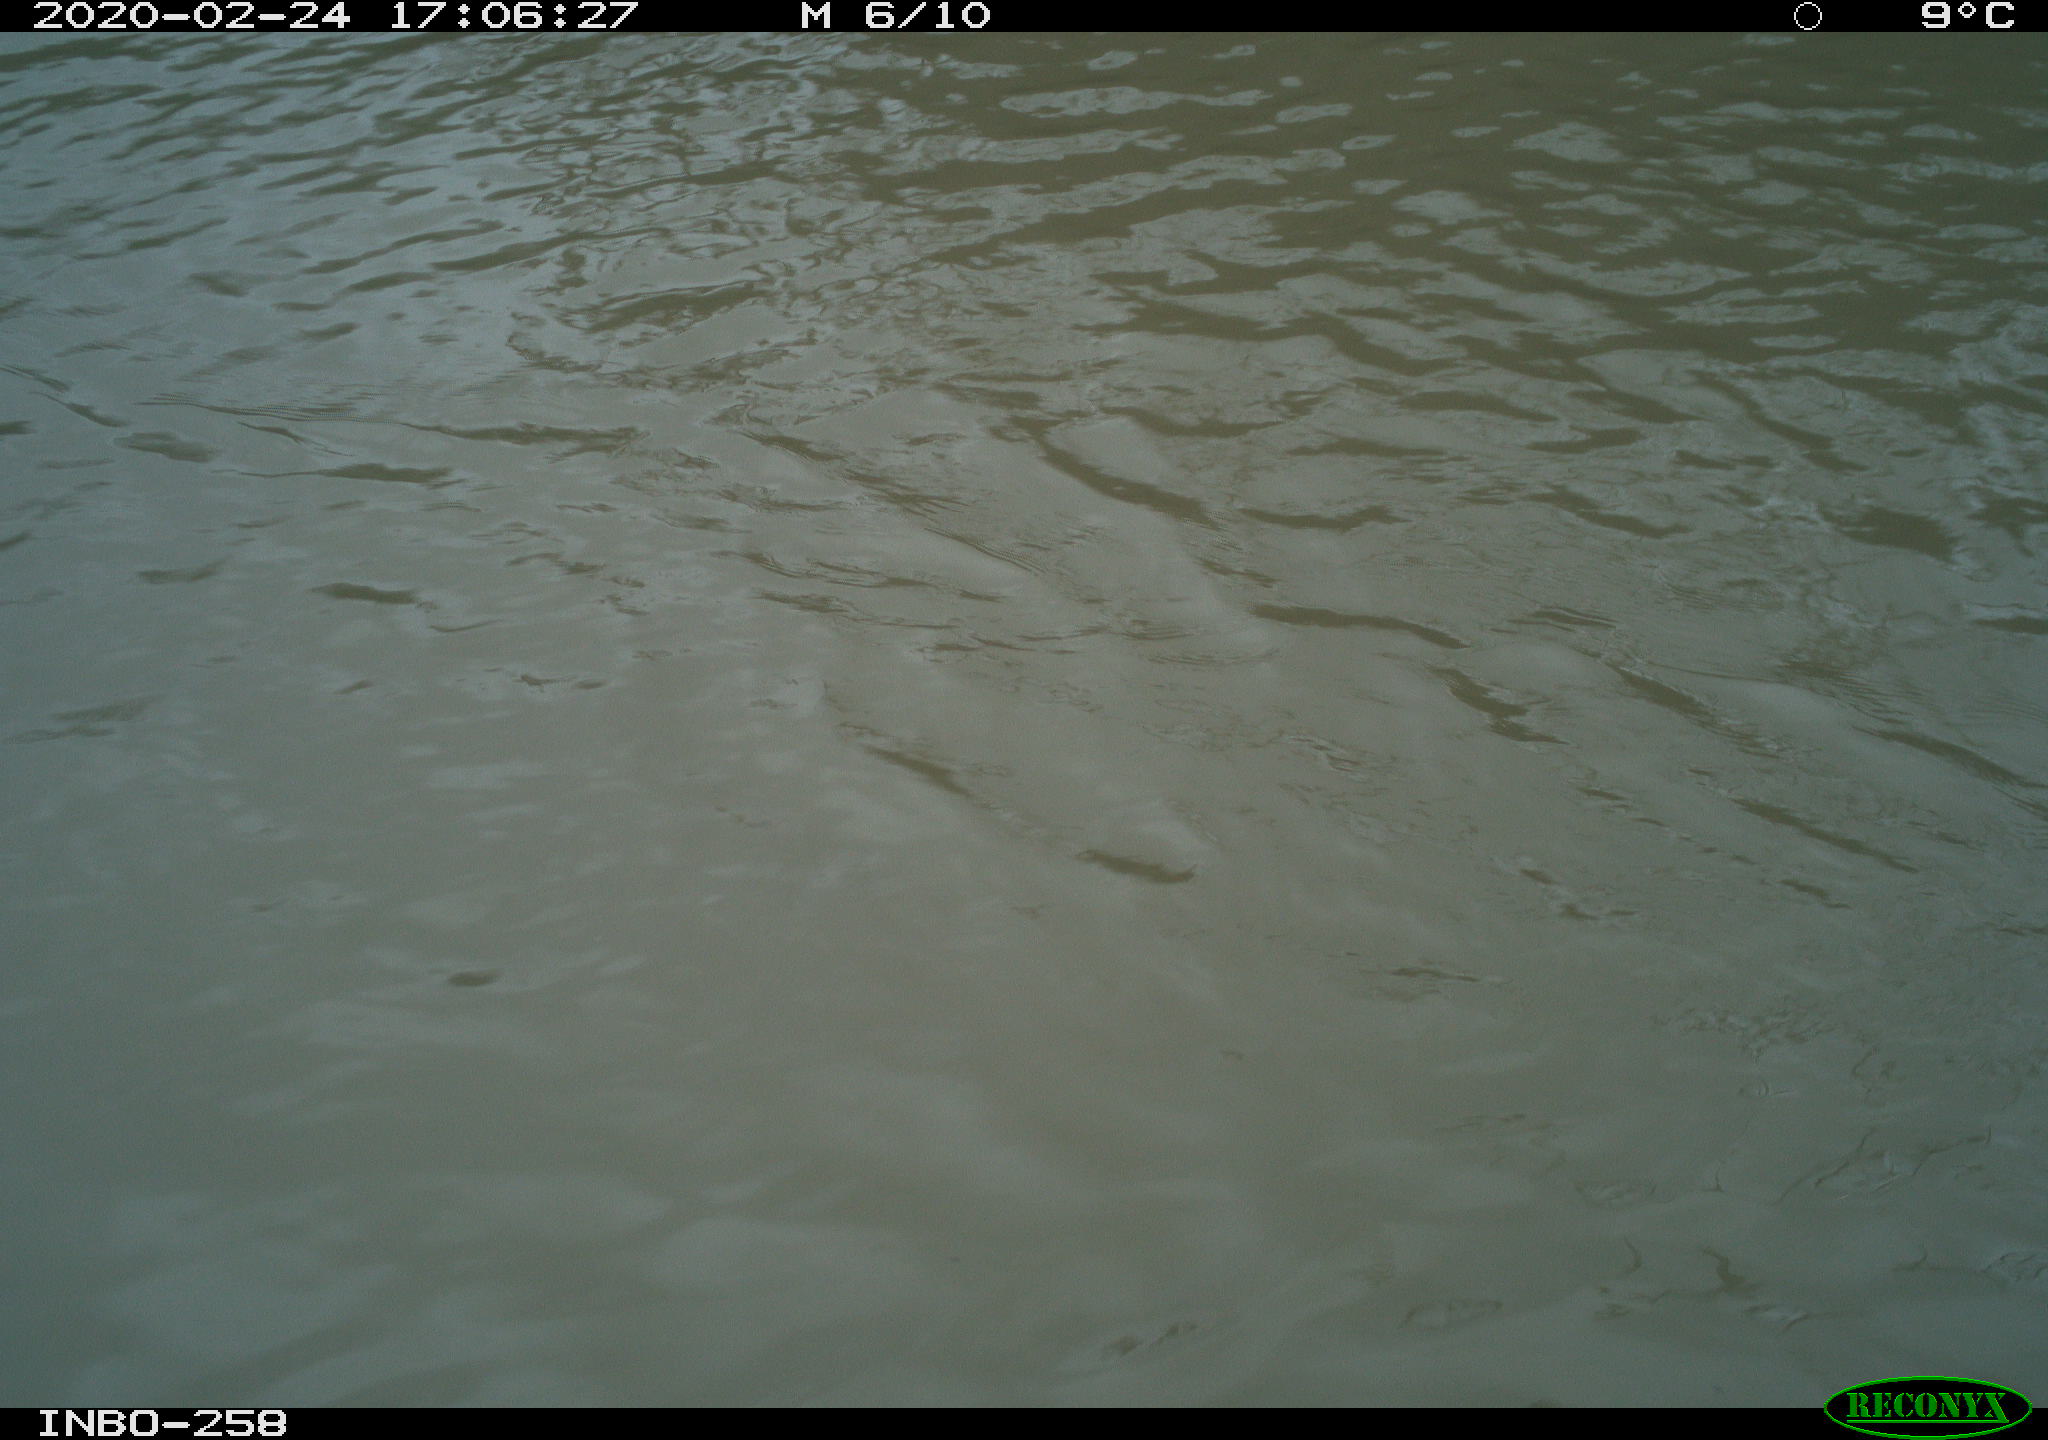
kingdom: Animalia
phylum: Chordata
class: Aves
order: Gruiformes
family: Rallidae
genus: Gallinula
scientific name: Gallinula chloropus
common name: Common moorhen
